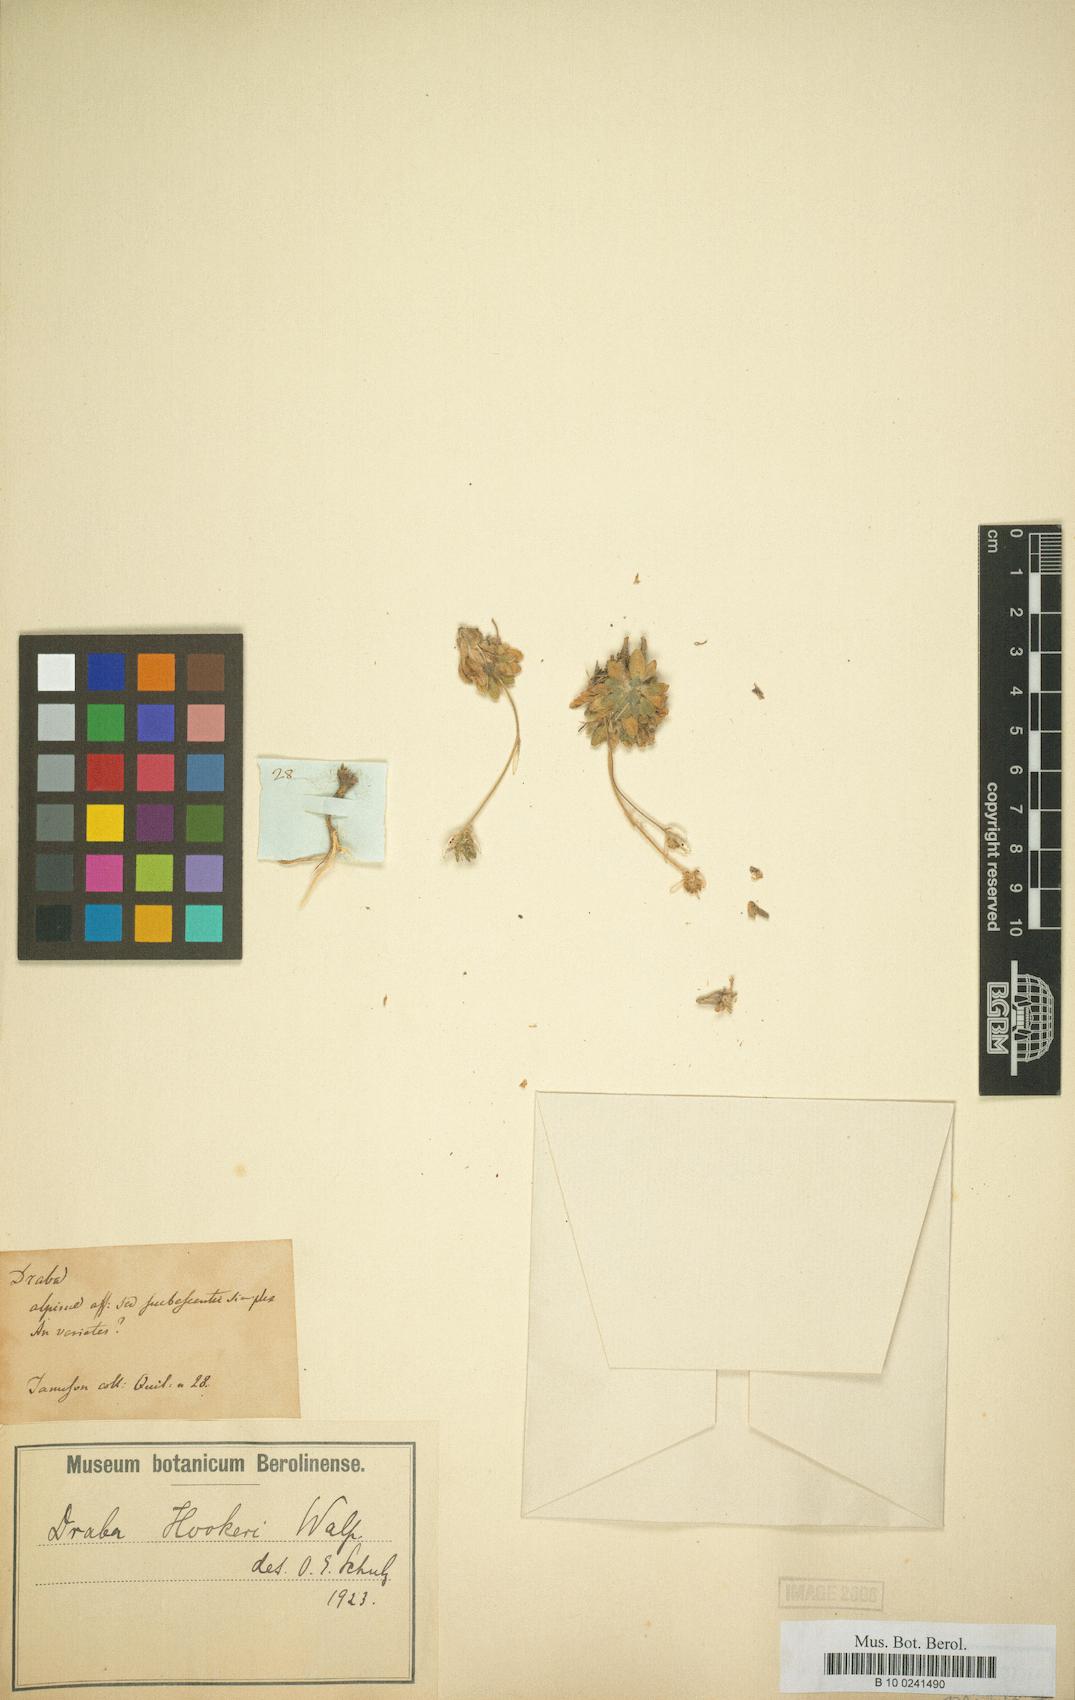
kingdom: Plantae
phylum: Tracheophyta
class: Magnoliopsida
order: Brassicales
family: Brassicaceae
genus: Draba
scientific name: Draba hookeri
